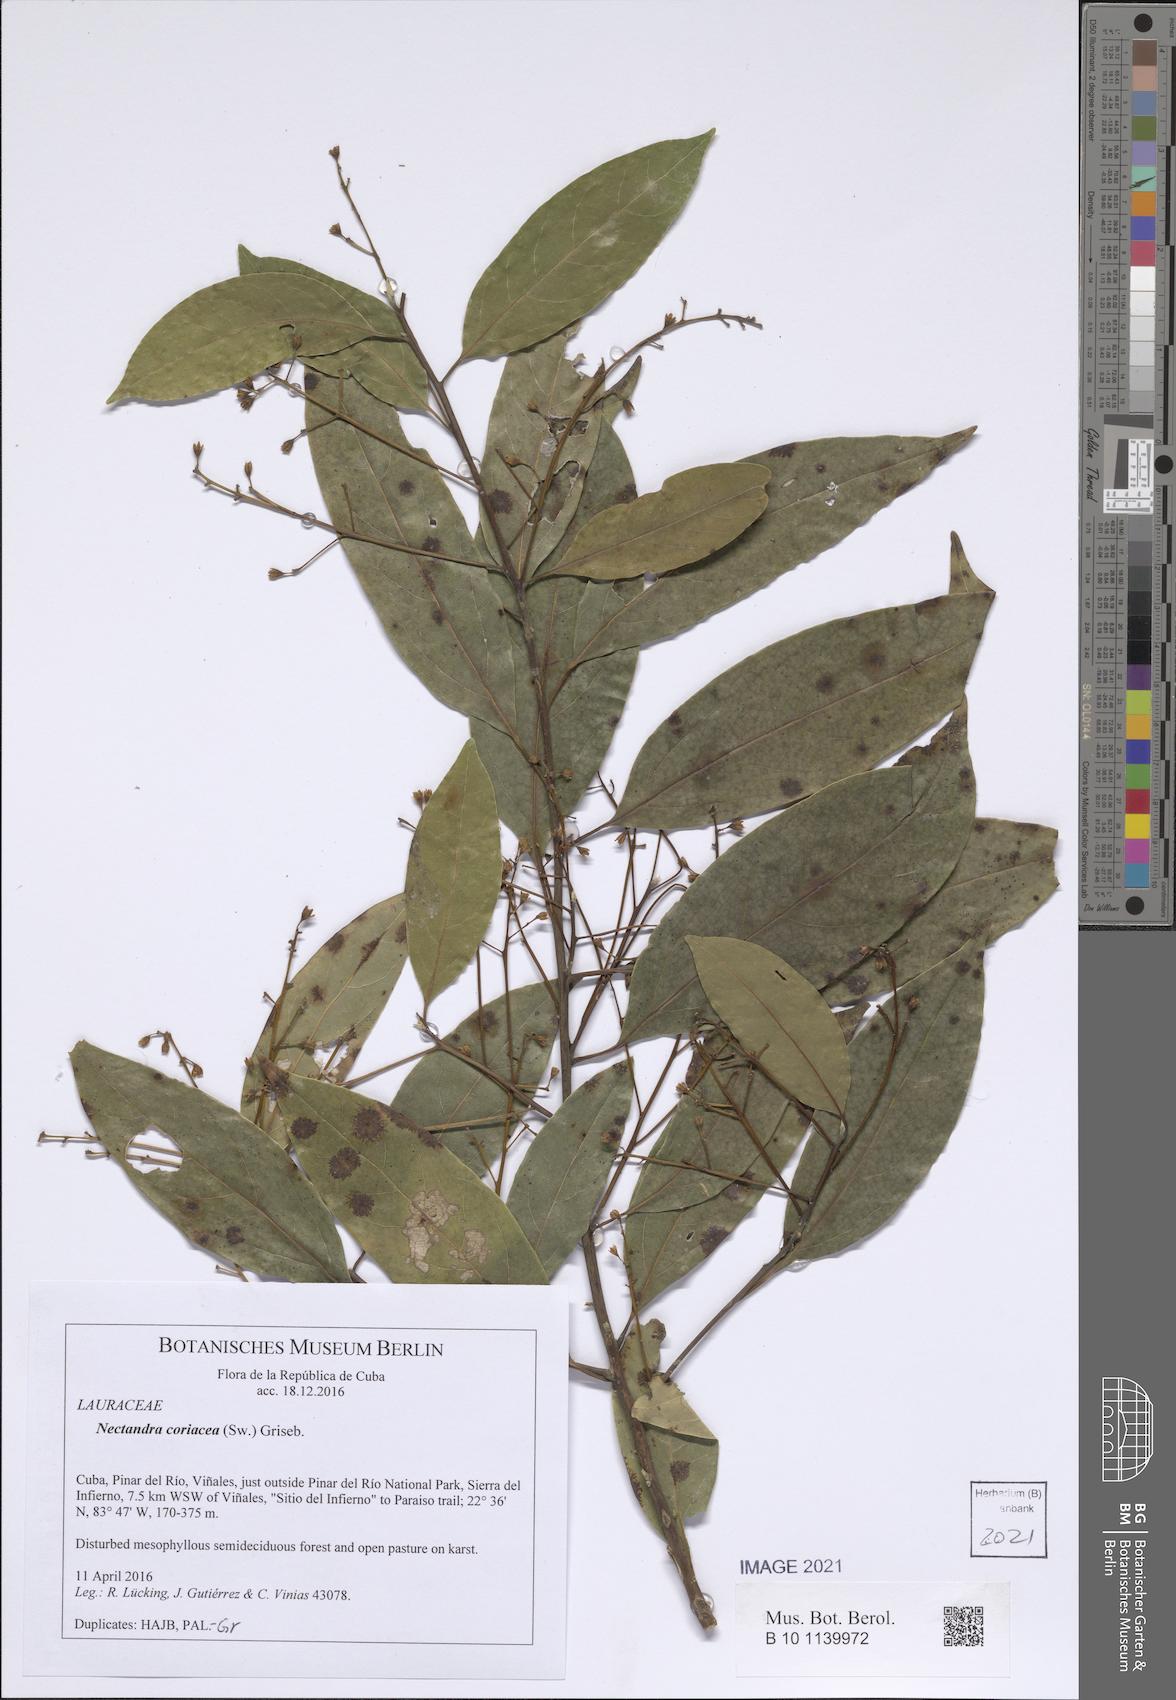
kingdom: Plantae
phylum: Tracheophyta
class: Magnoliopsida
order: Laurales
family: Lauraceae
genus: Damburneya
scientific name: Damburneya coriacea
